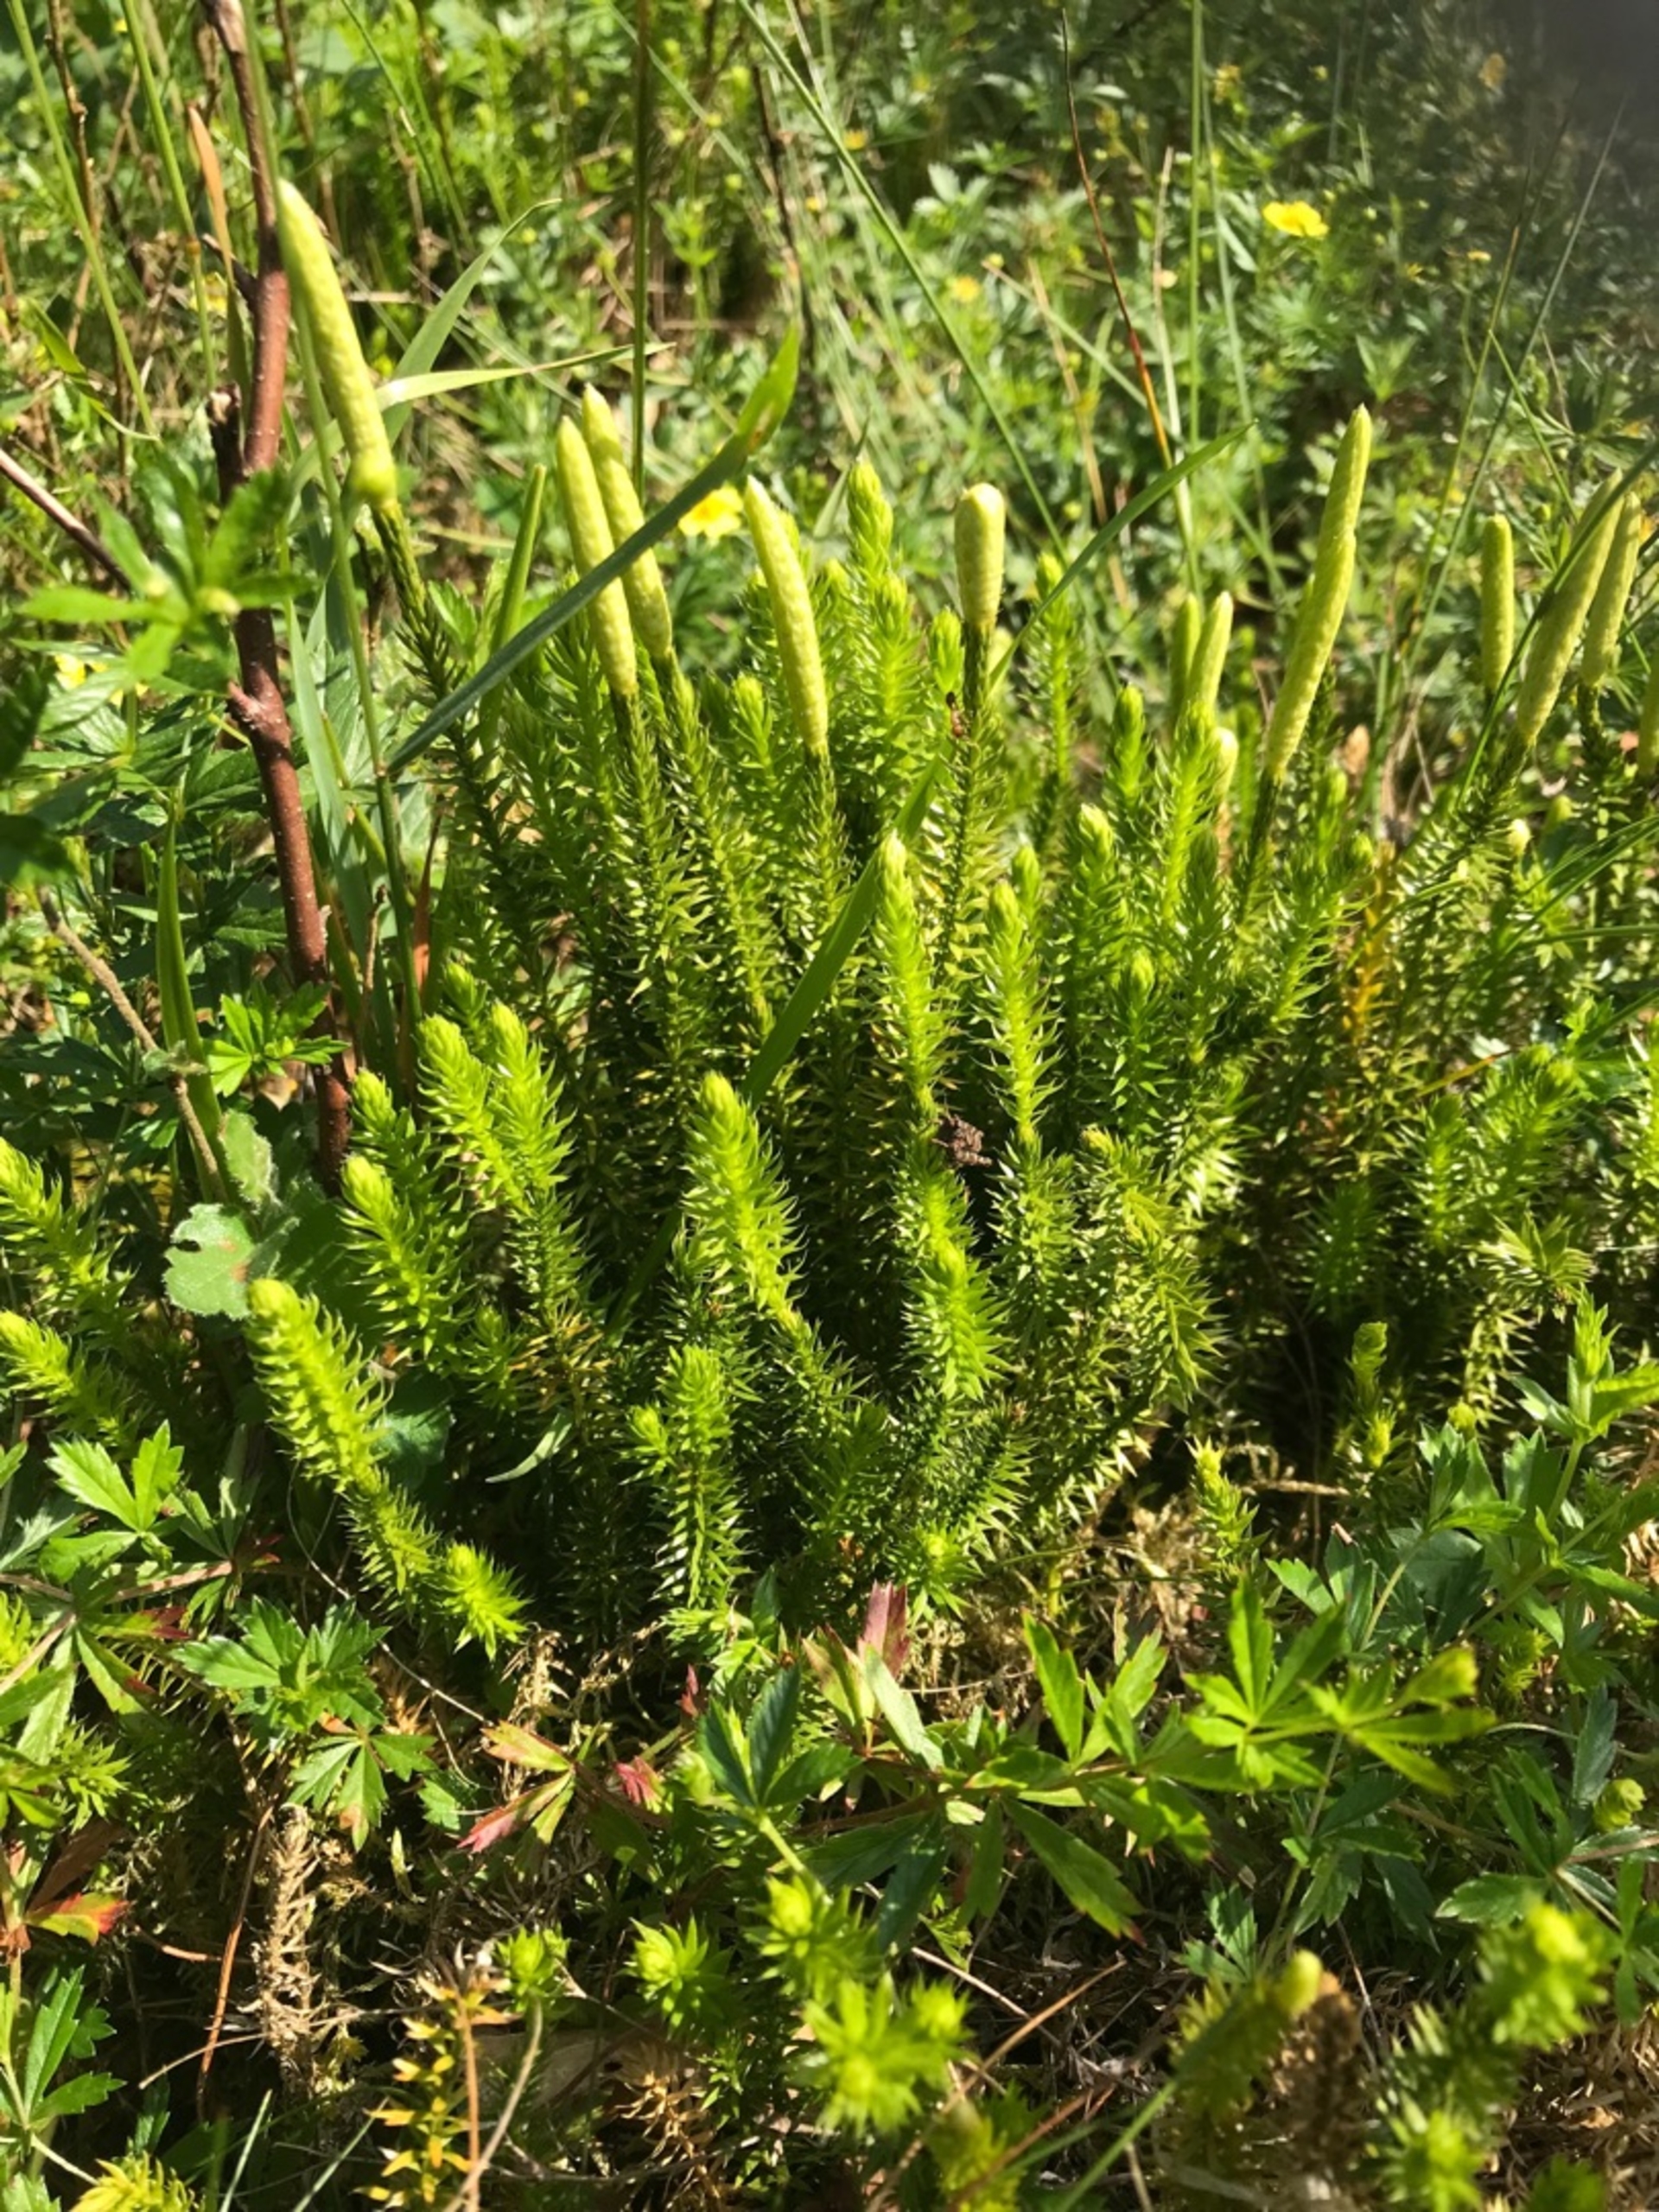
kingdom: Plantae
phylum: Tracheophyta
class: Lycopodiopsida
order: Lycopodiales
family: Lycopodiaceae
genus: Spinulum
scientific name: Spinulum annotinum
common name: Femradet ulvefod
